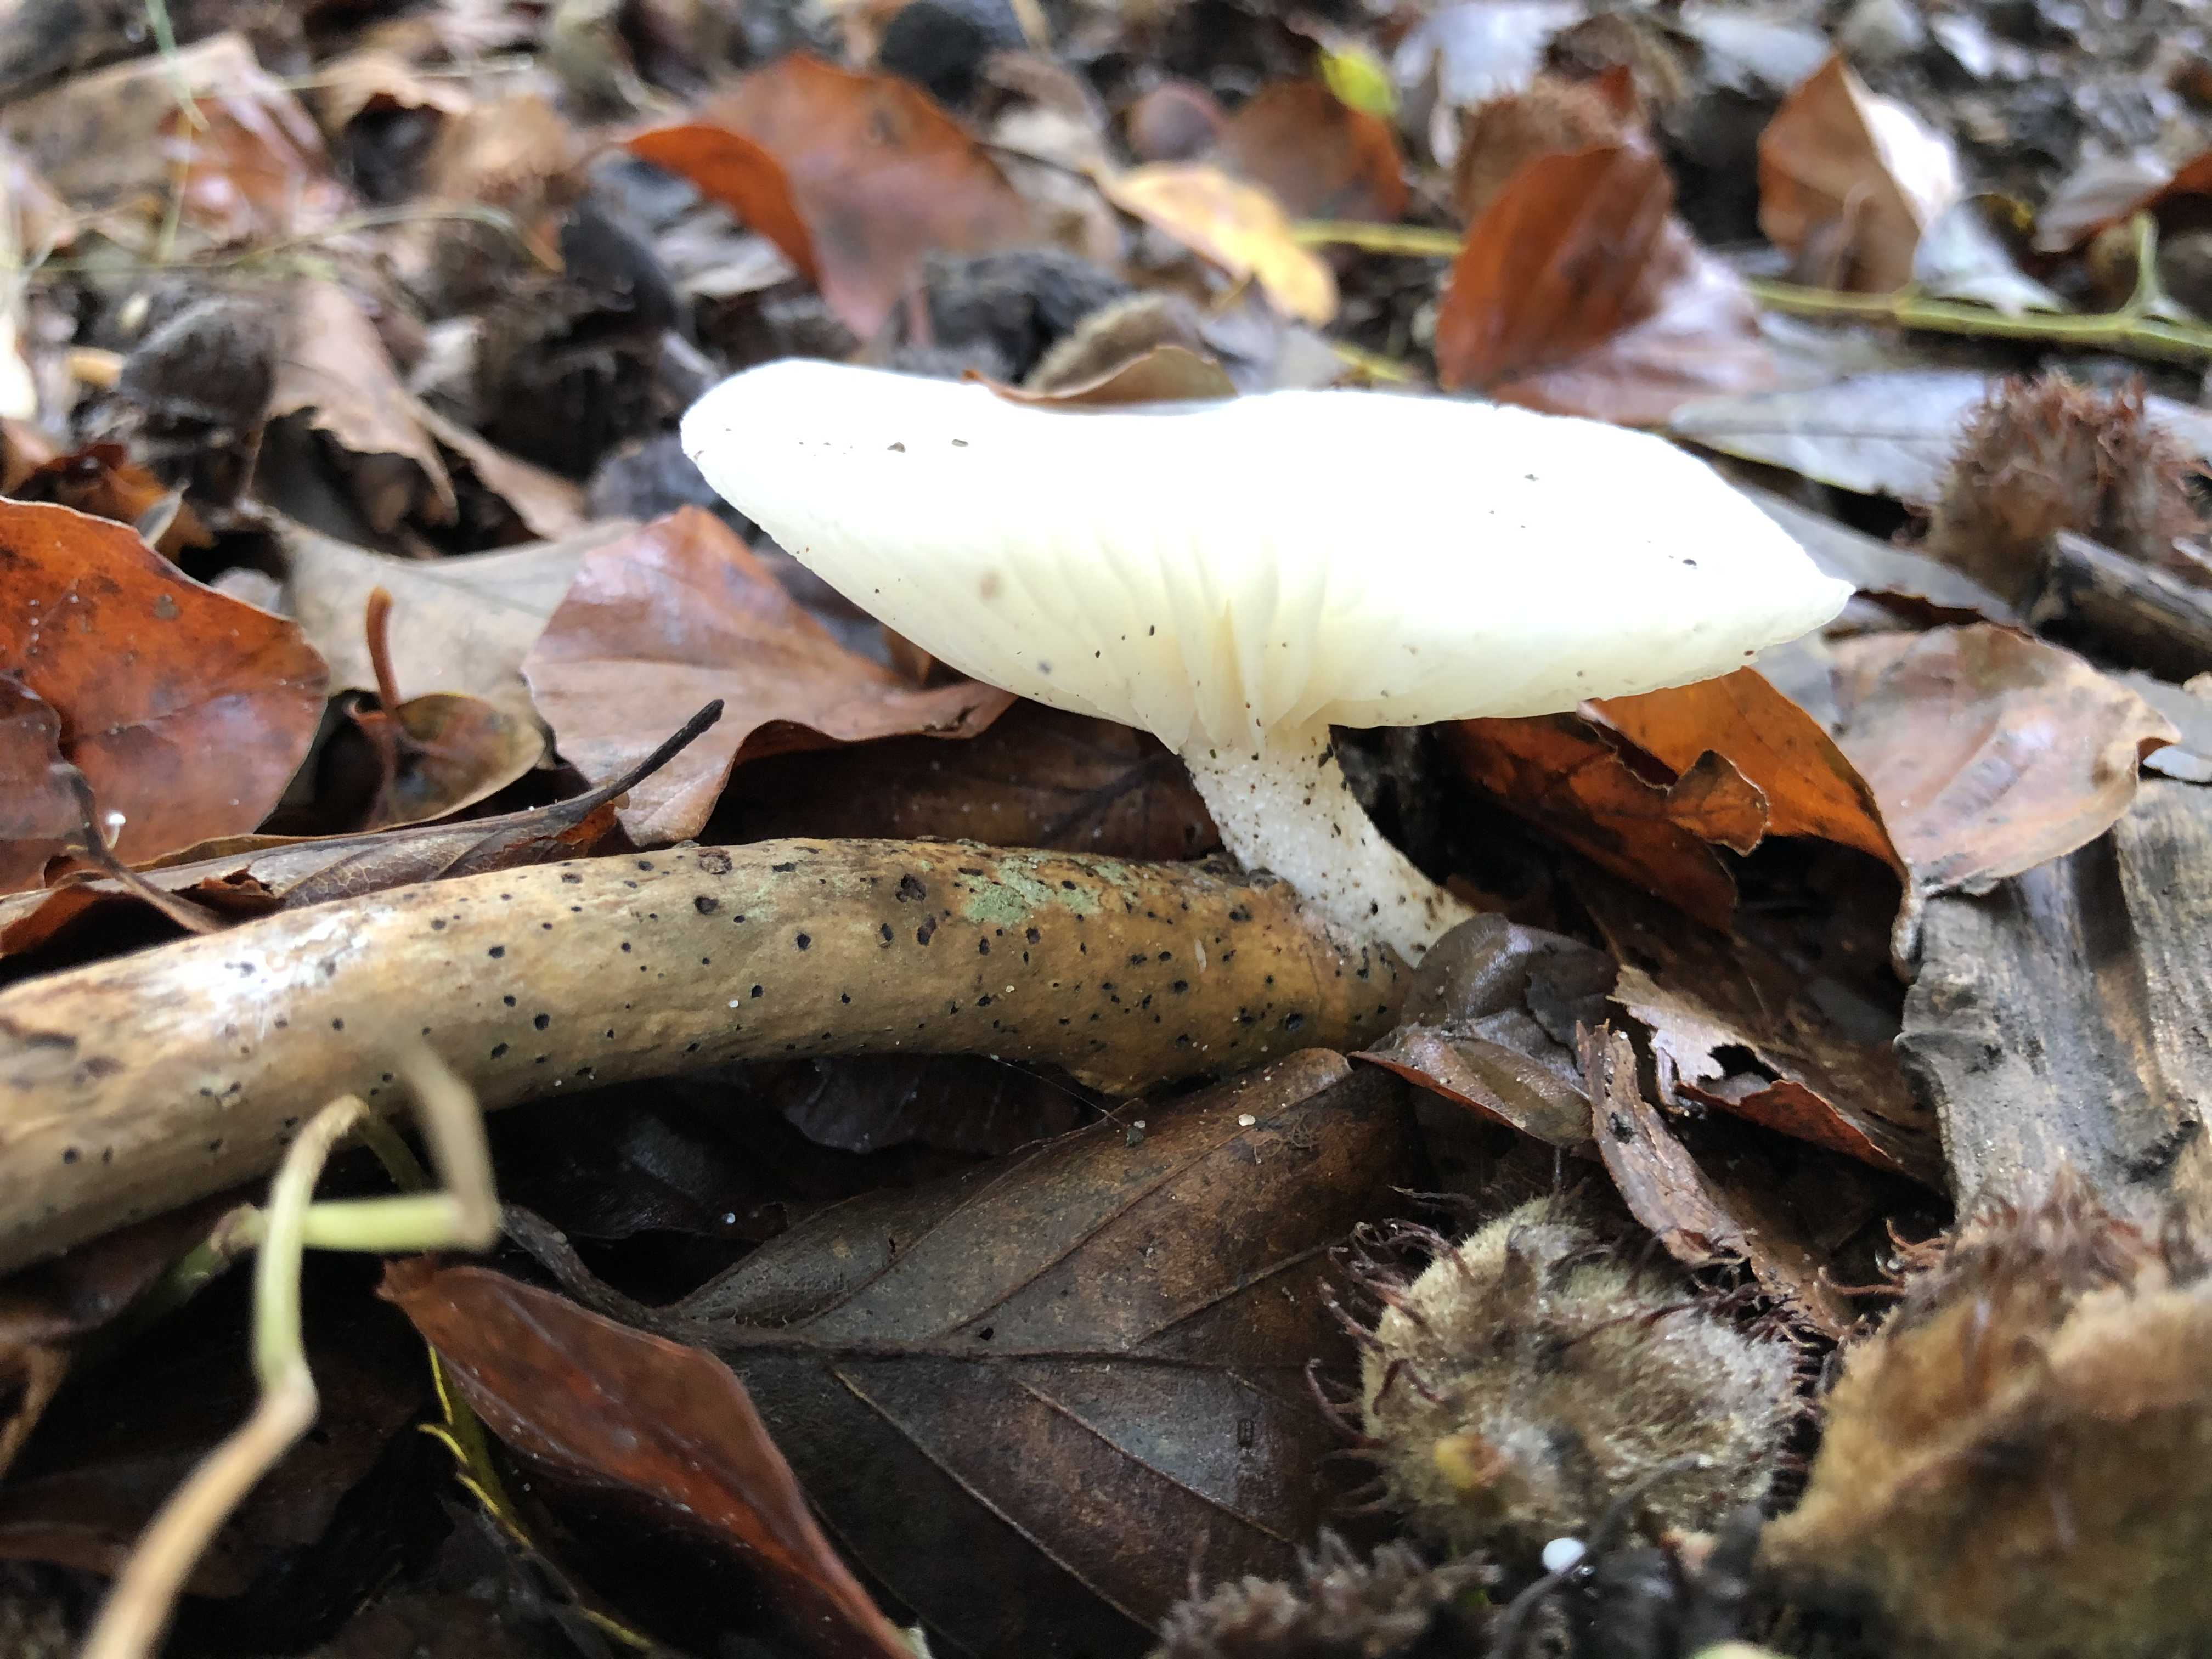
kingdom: Fungi
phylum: Basidiomycota
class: Agaricomycetes
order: Agaricales
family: Hygrophoraceae
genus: Hygrophorus
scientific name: Hygrophorus
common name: sneglehat
